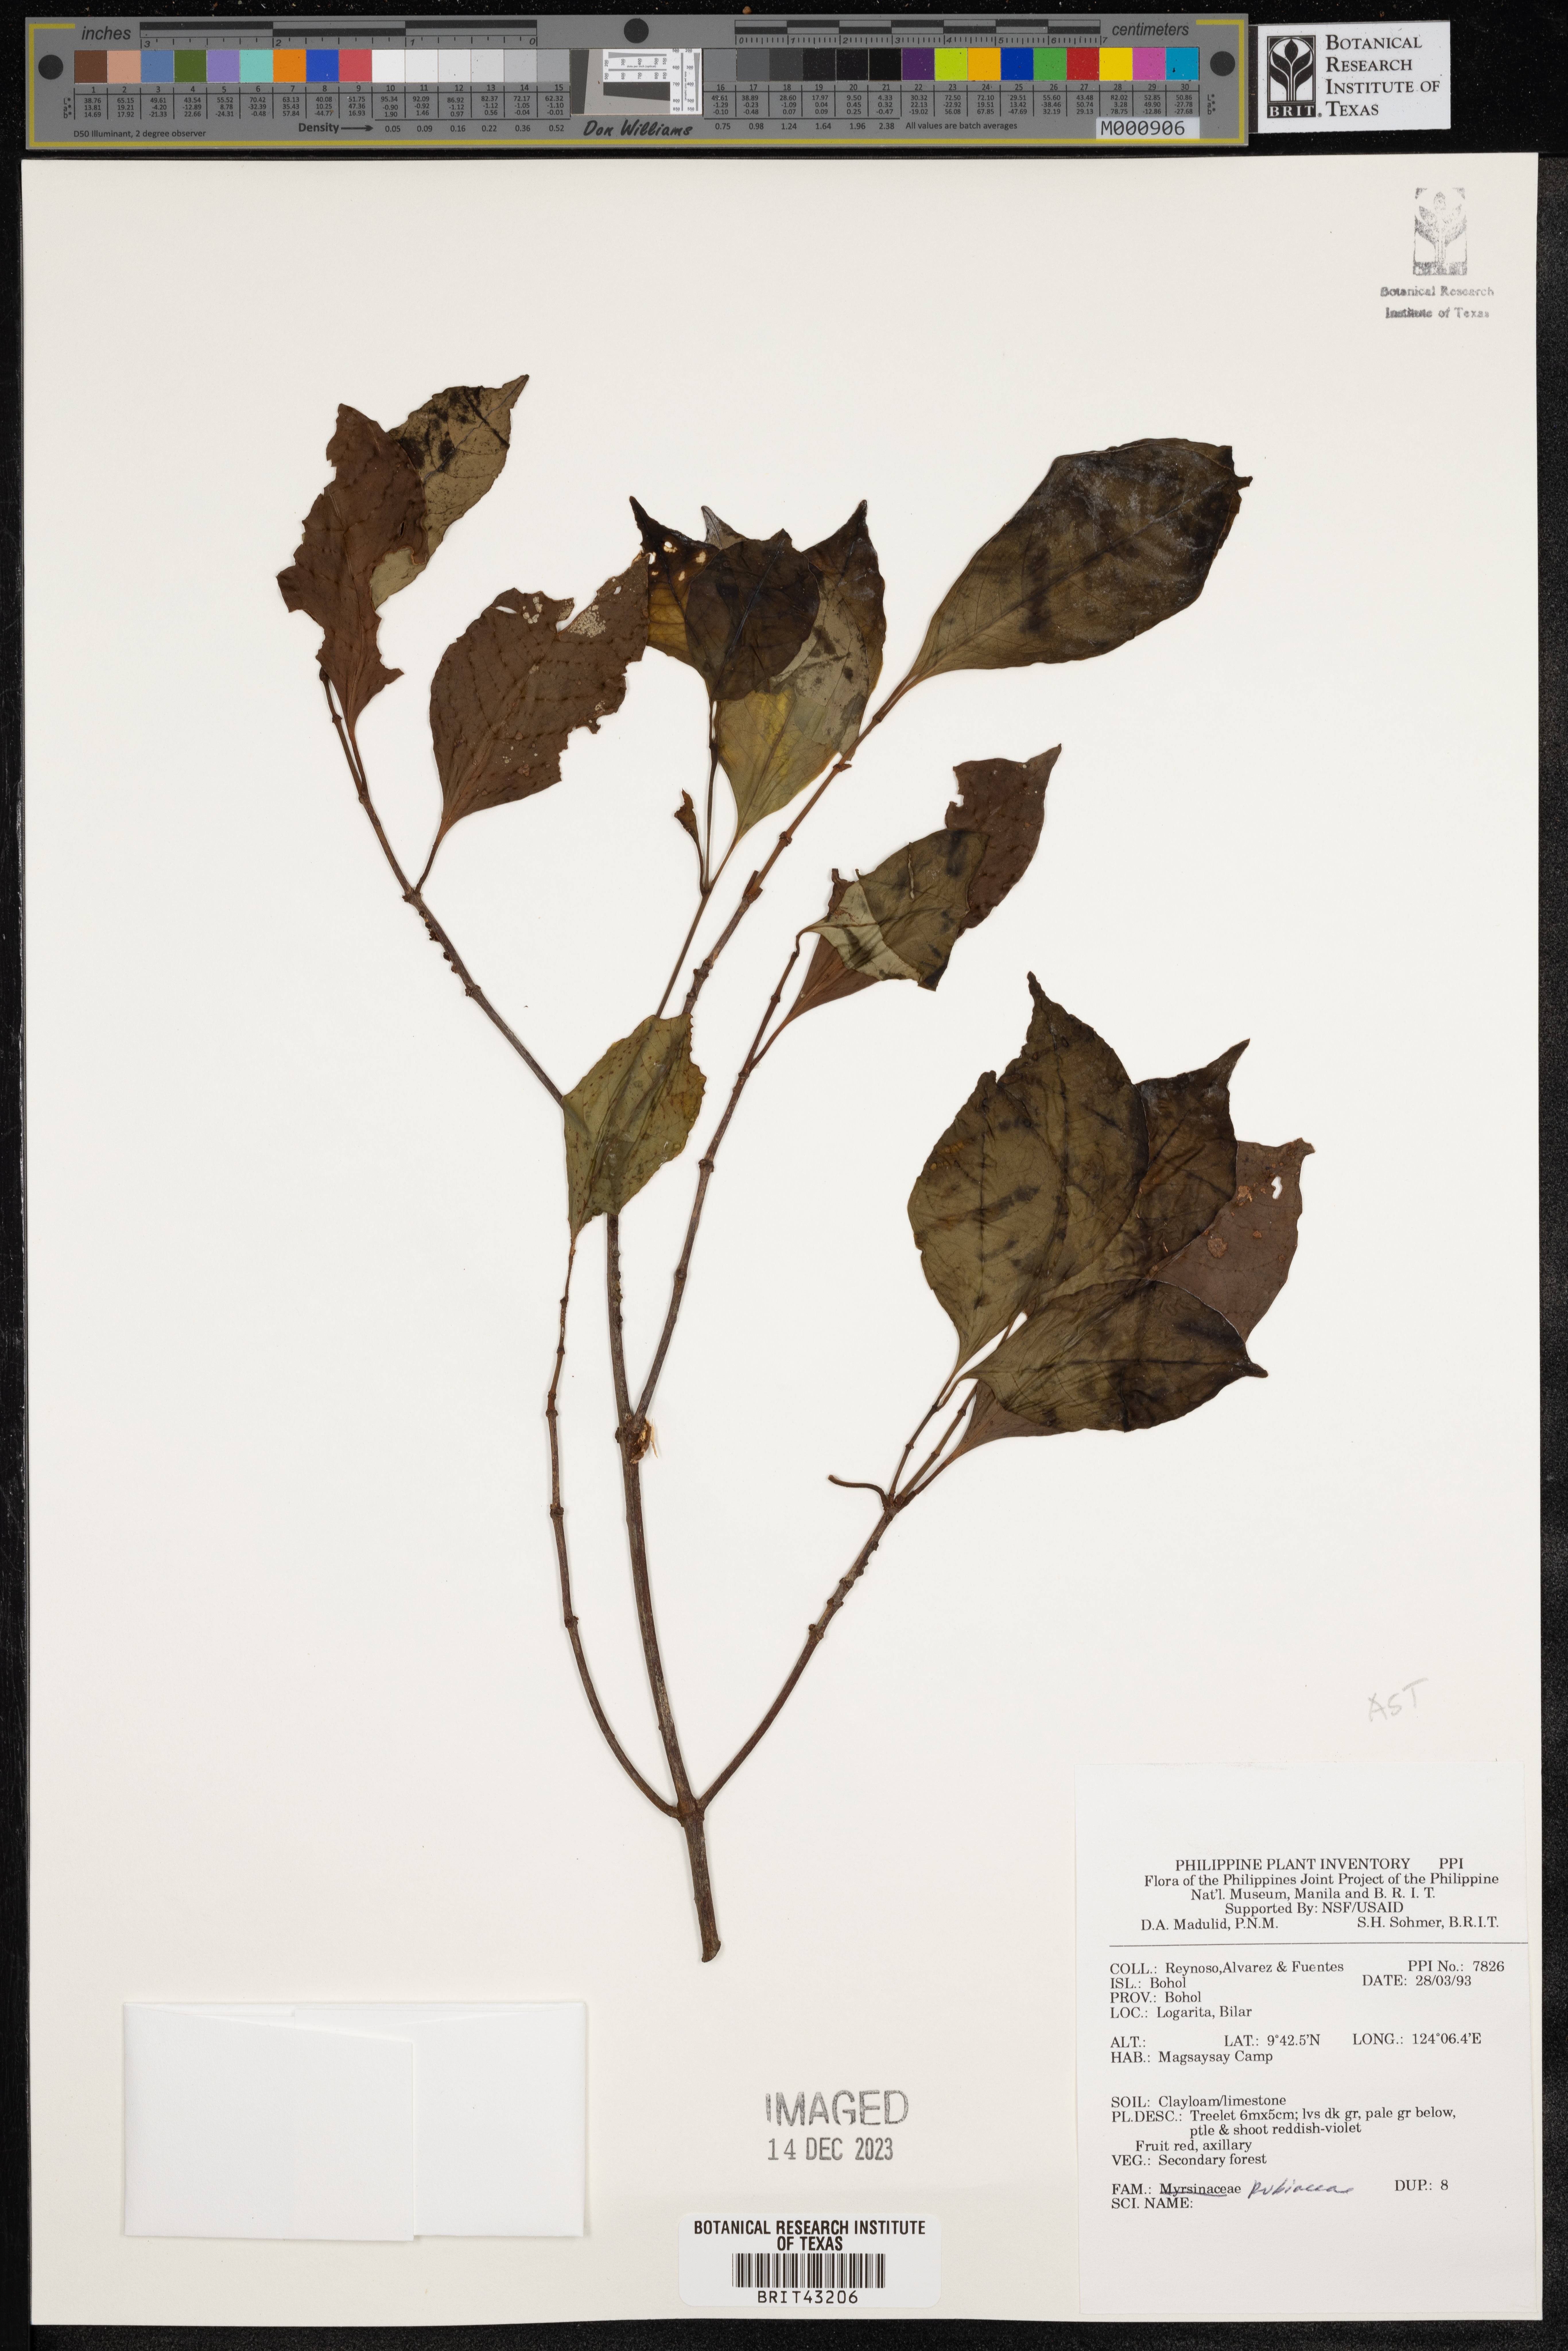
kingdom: Plantae
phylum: Tracheophyta
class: Magnoliopsida
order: Gentianales
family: Rubiaceae
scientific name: Rubiaceae
